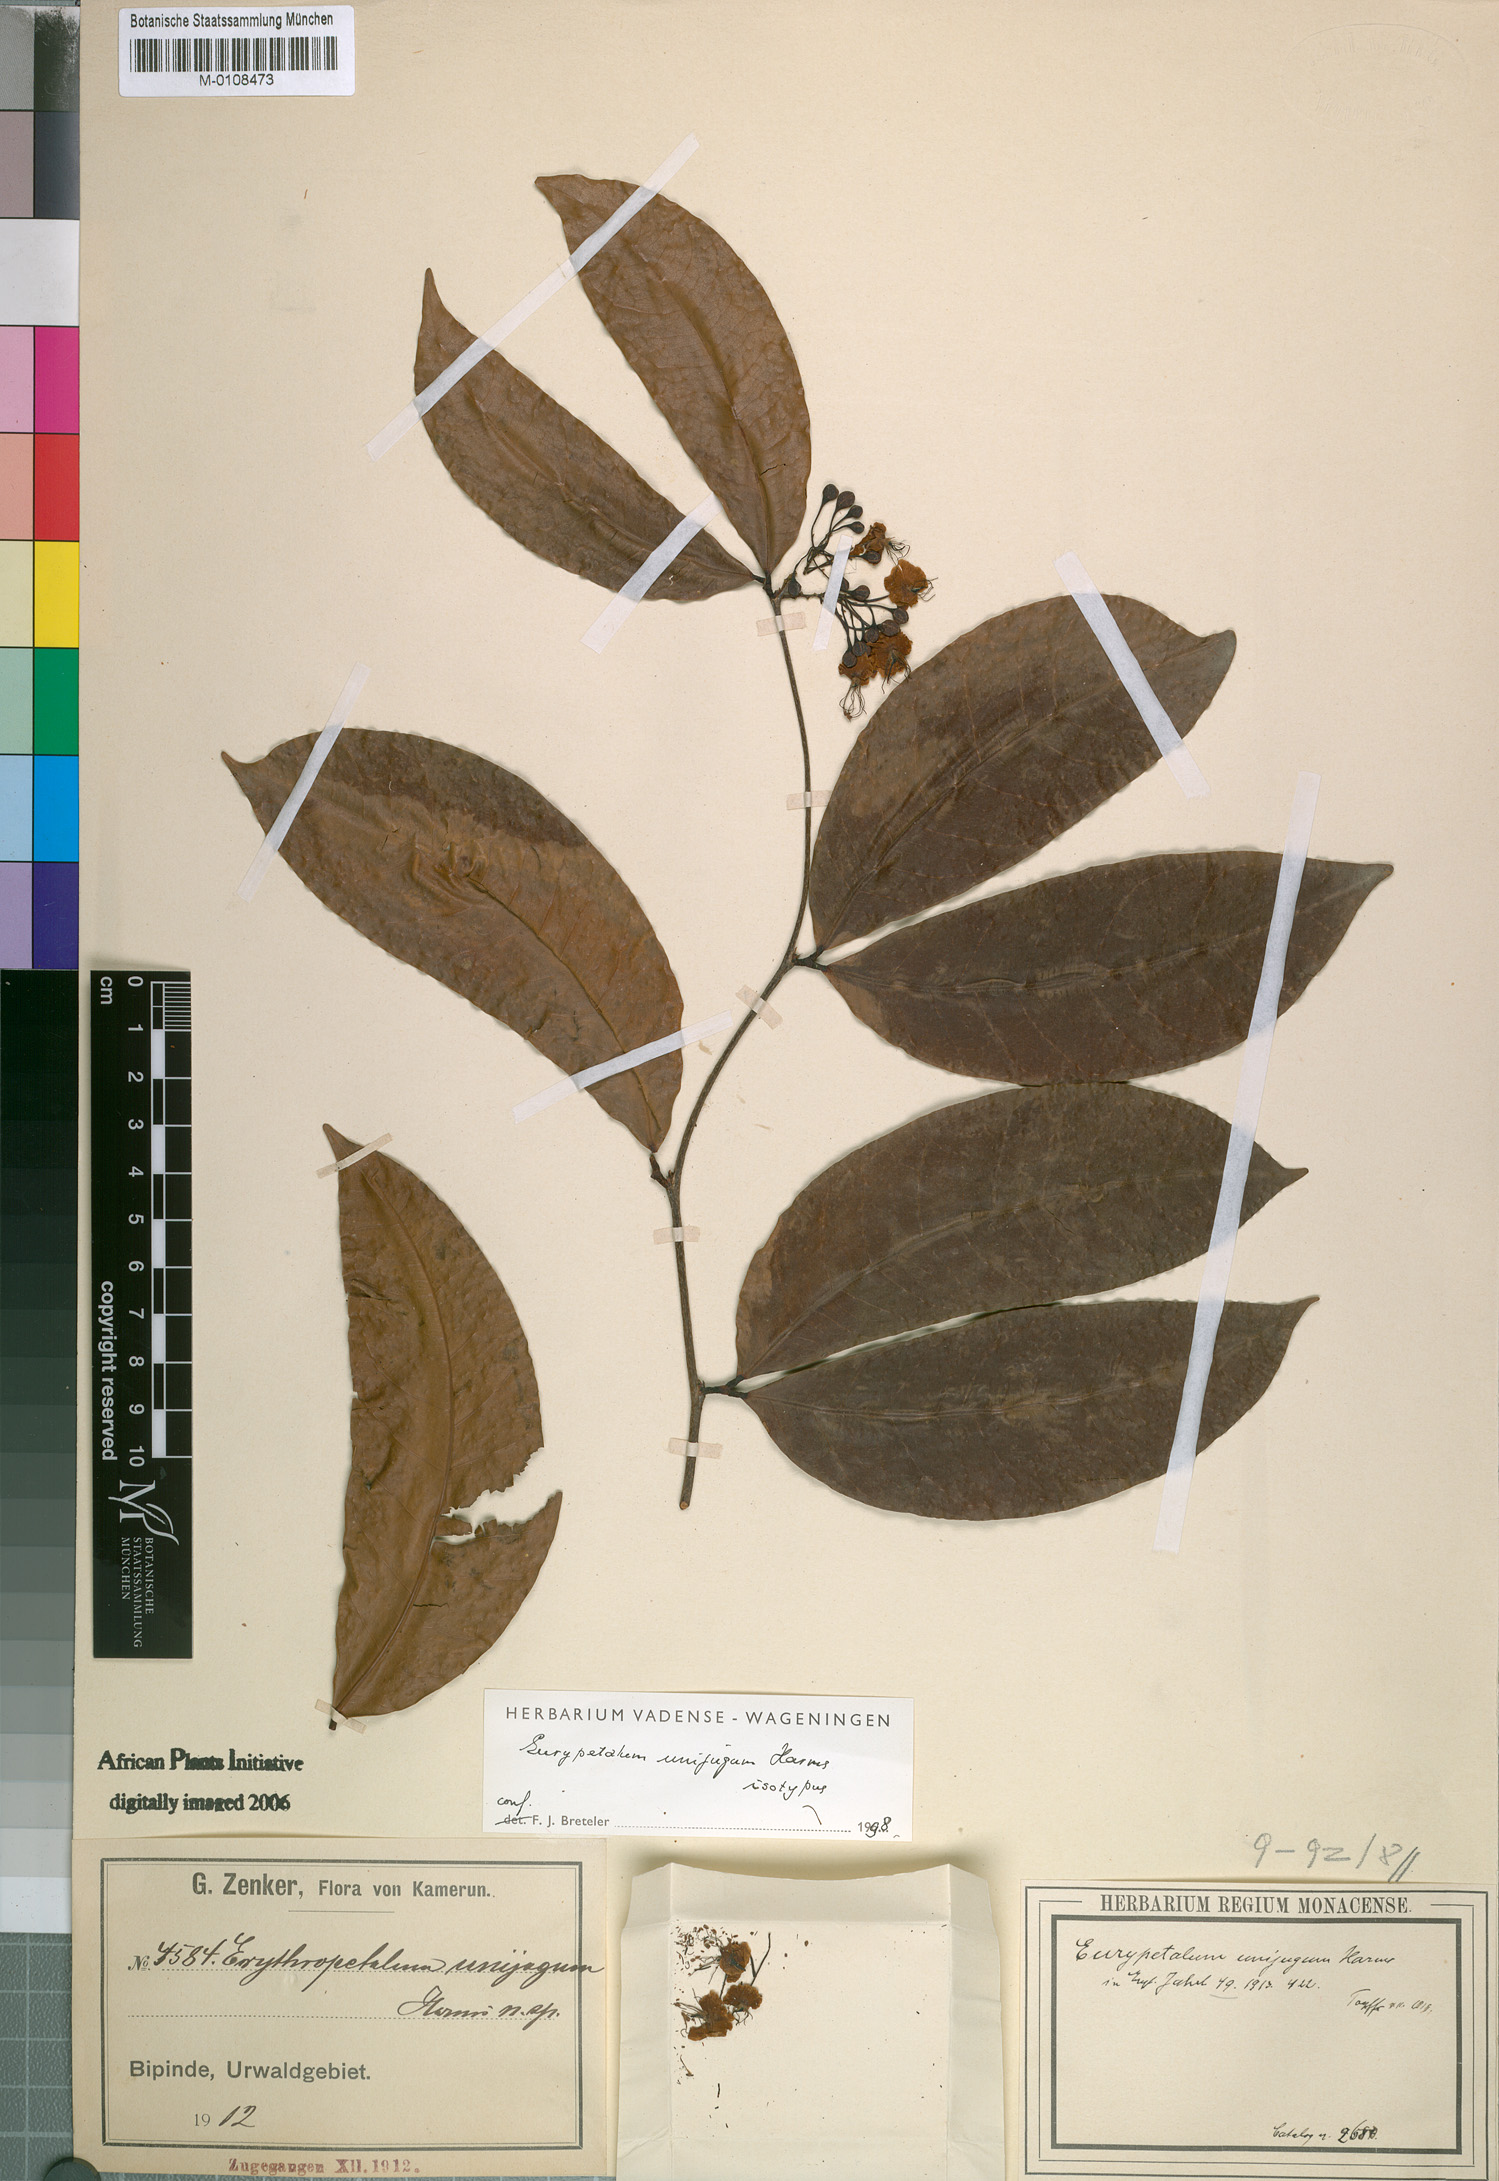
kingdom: Plantae
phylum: Tracheophyta
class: Magnoliopsida
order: Fabales
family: Fabaceae
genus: Eurypetalum
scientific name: Eurypetalum unijugum
